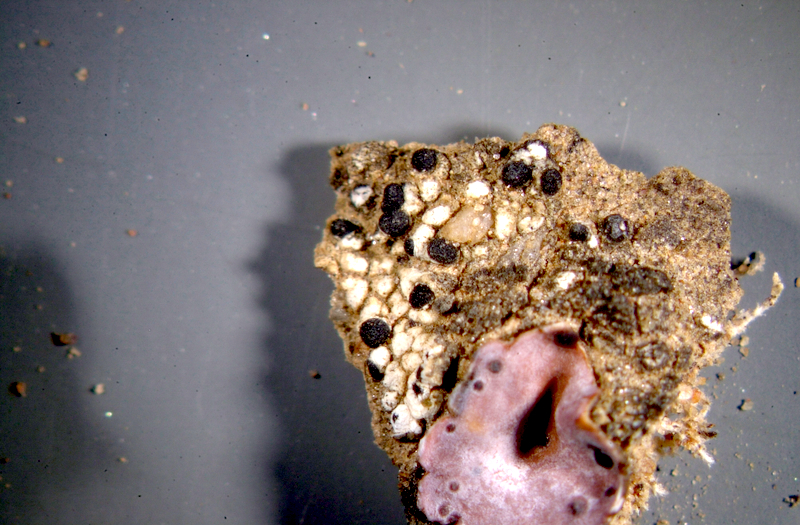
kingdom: Fungi
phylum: Ascomycota
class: Lecanoromycetes
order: Lecanorales
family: Ramalinaceae
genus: Bibbya
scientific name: Bibbya australis
